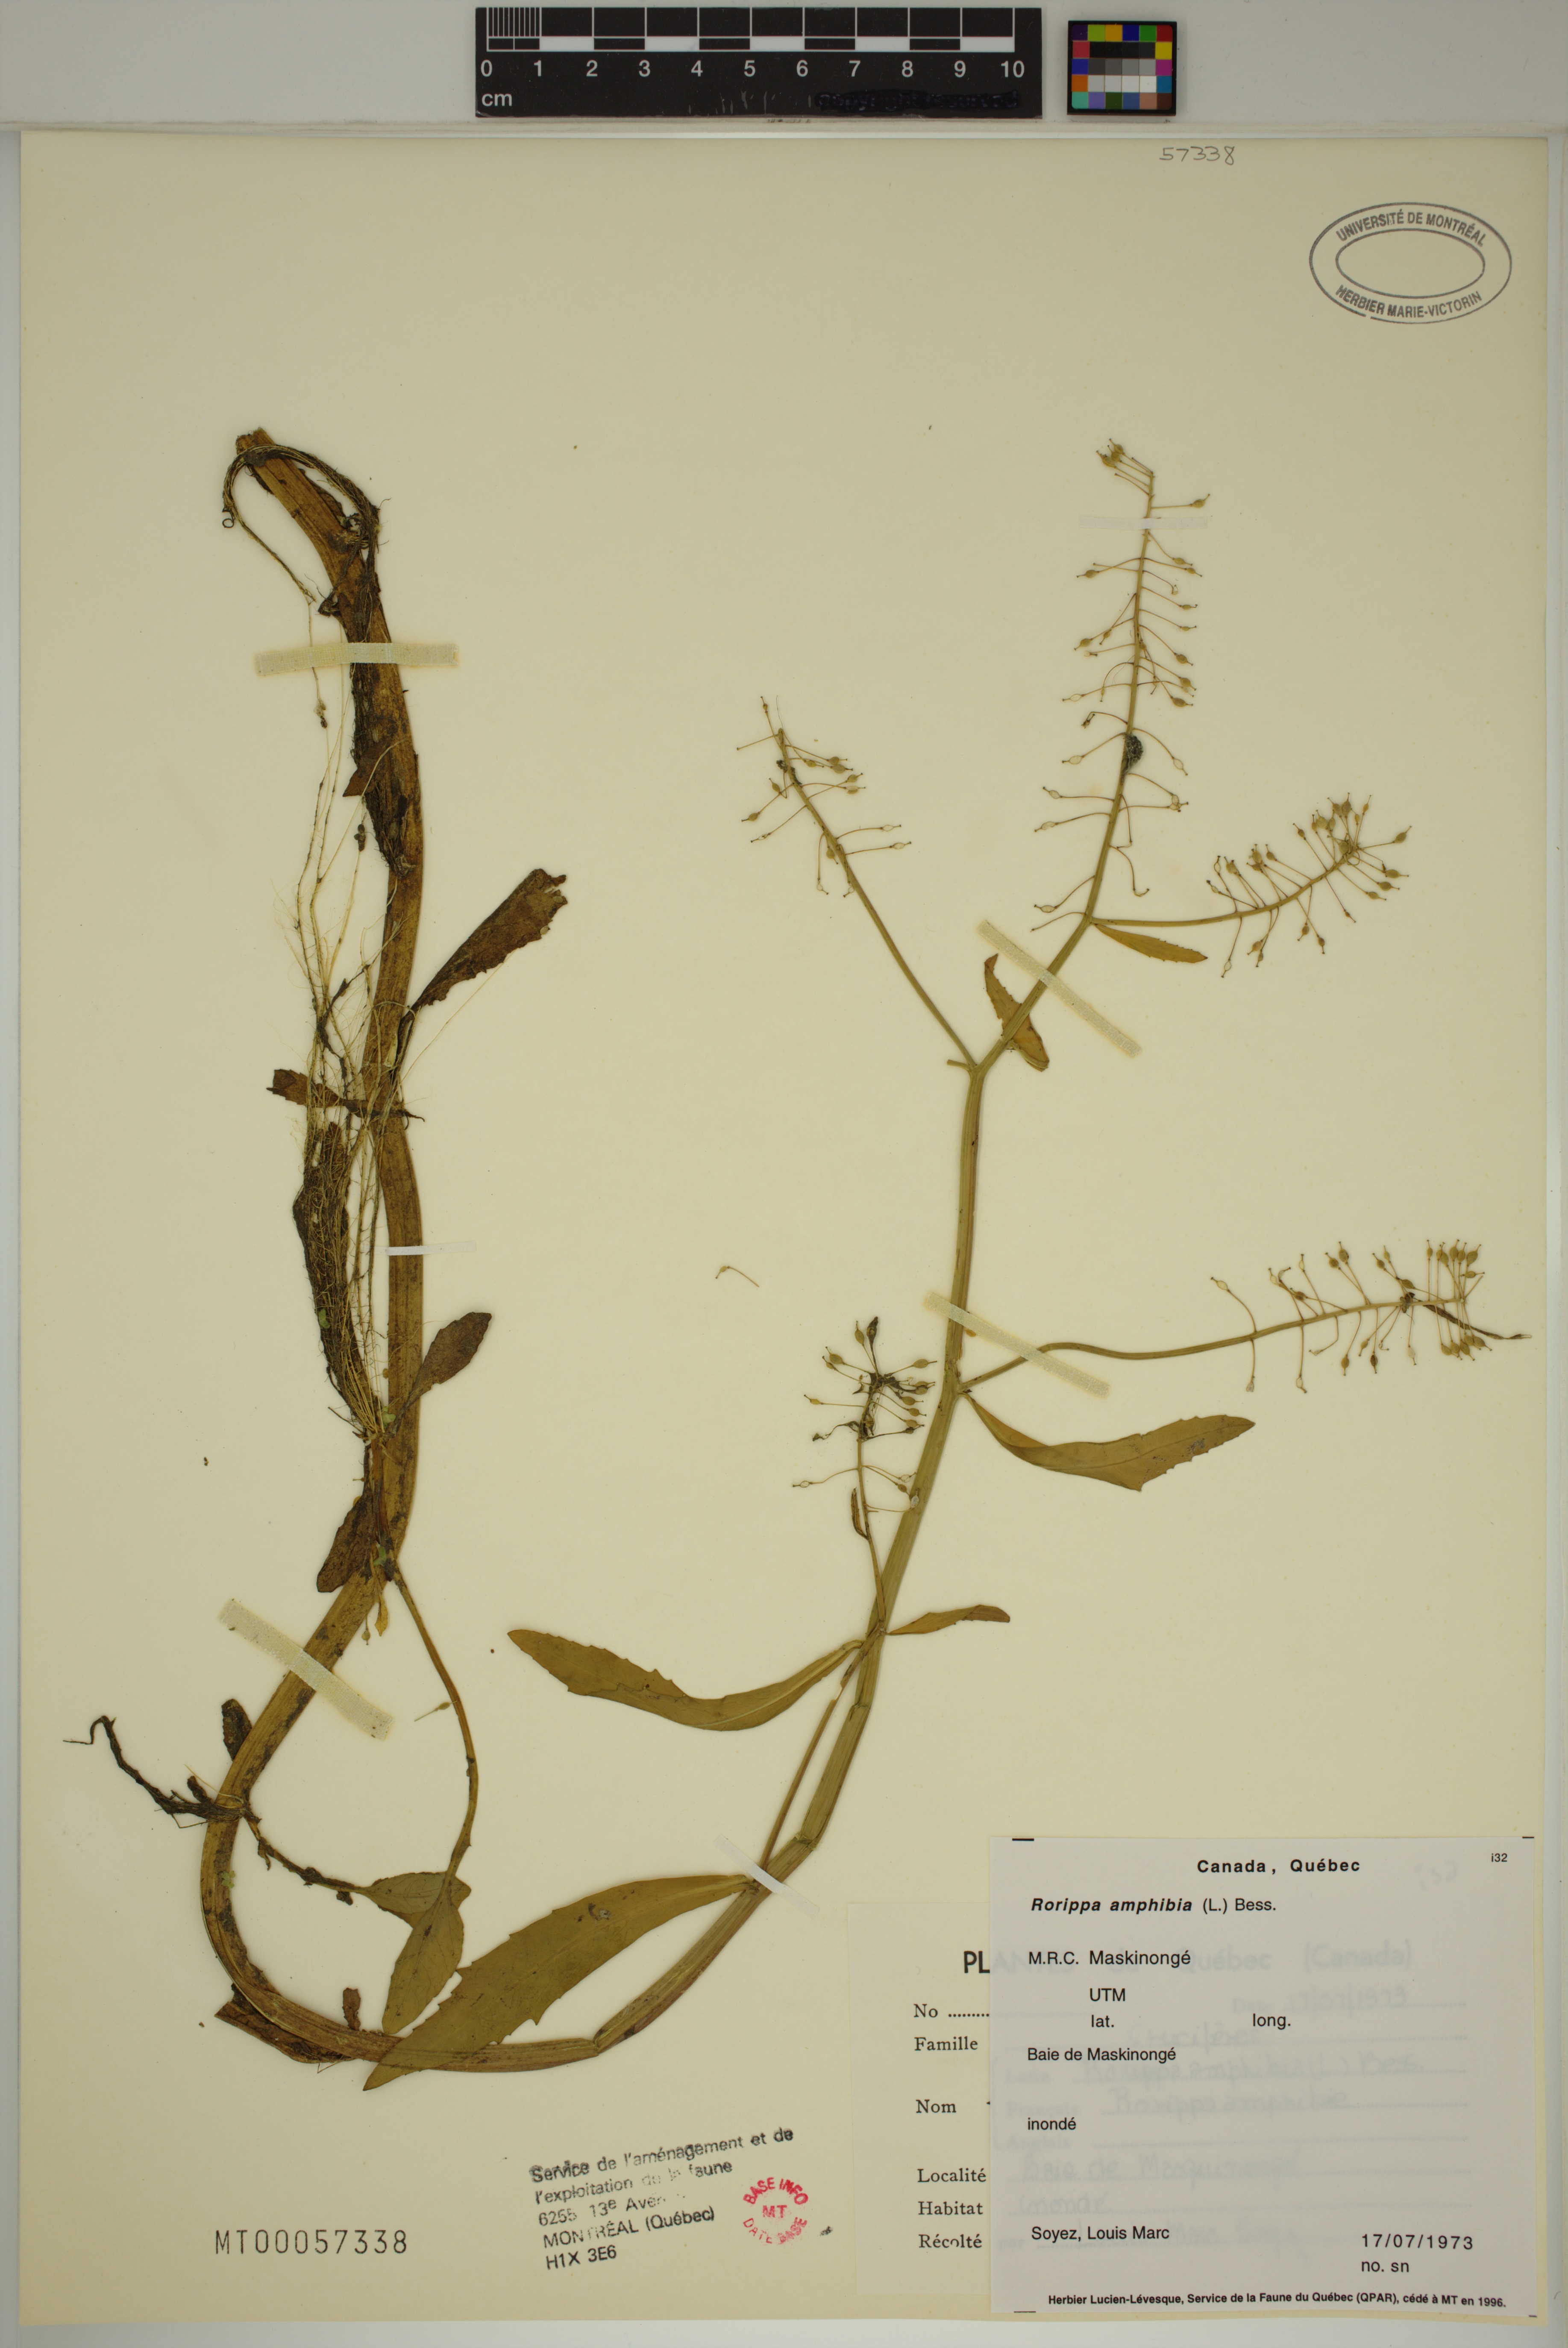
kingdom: Plantae
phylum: Tracheophyta
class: Magnoliopsida
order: Brassicales
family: Brassicaceae
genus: Rorippa
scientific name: Rorippa amphibia
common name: Great yellow-cress
